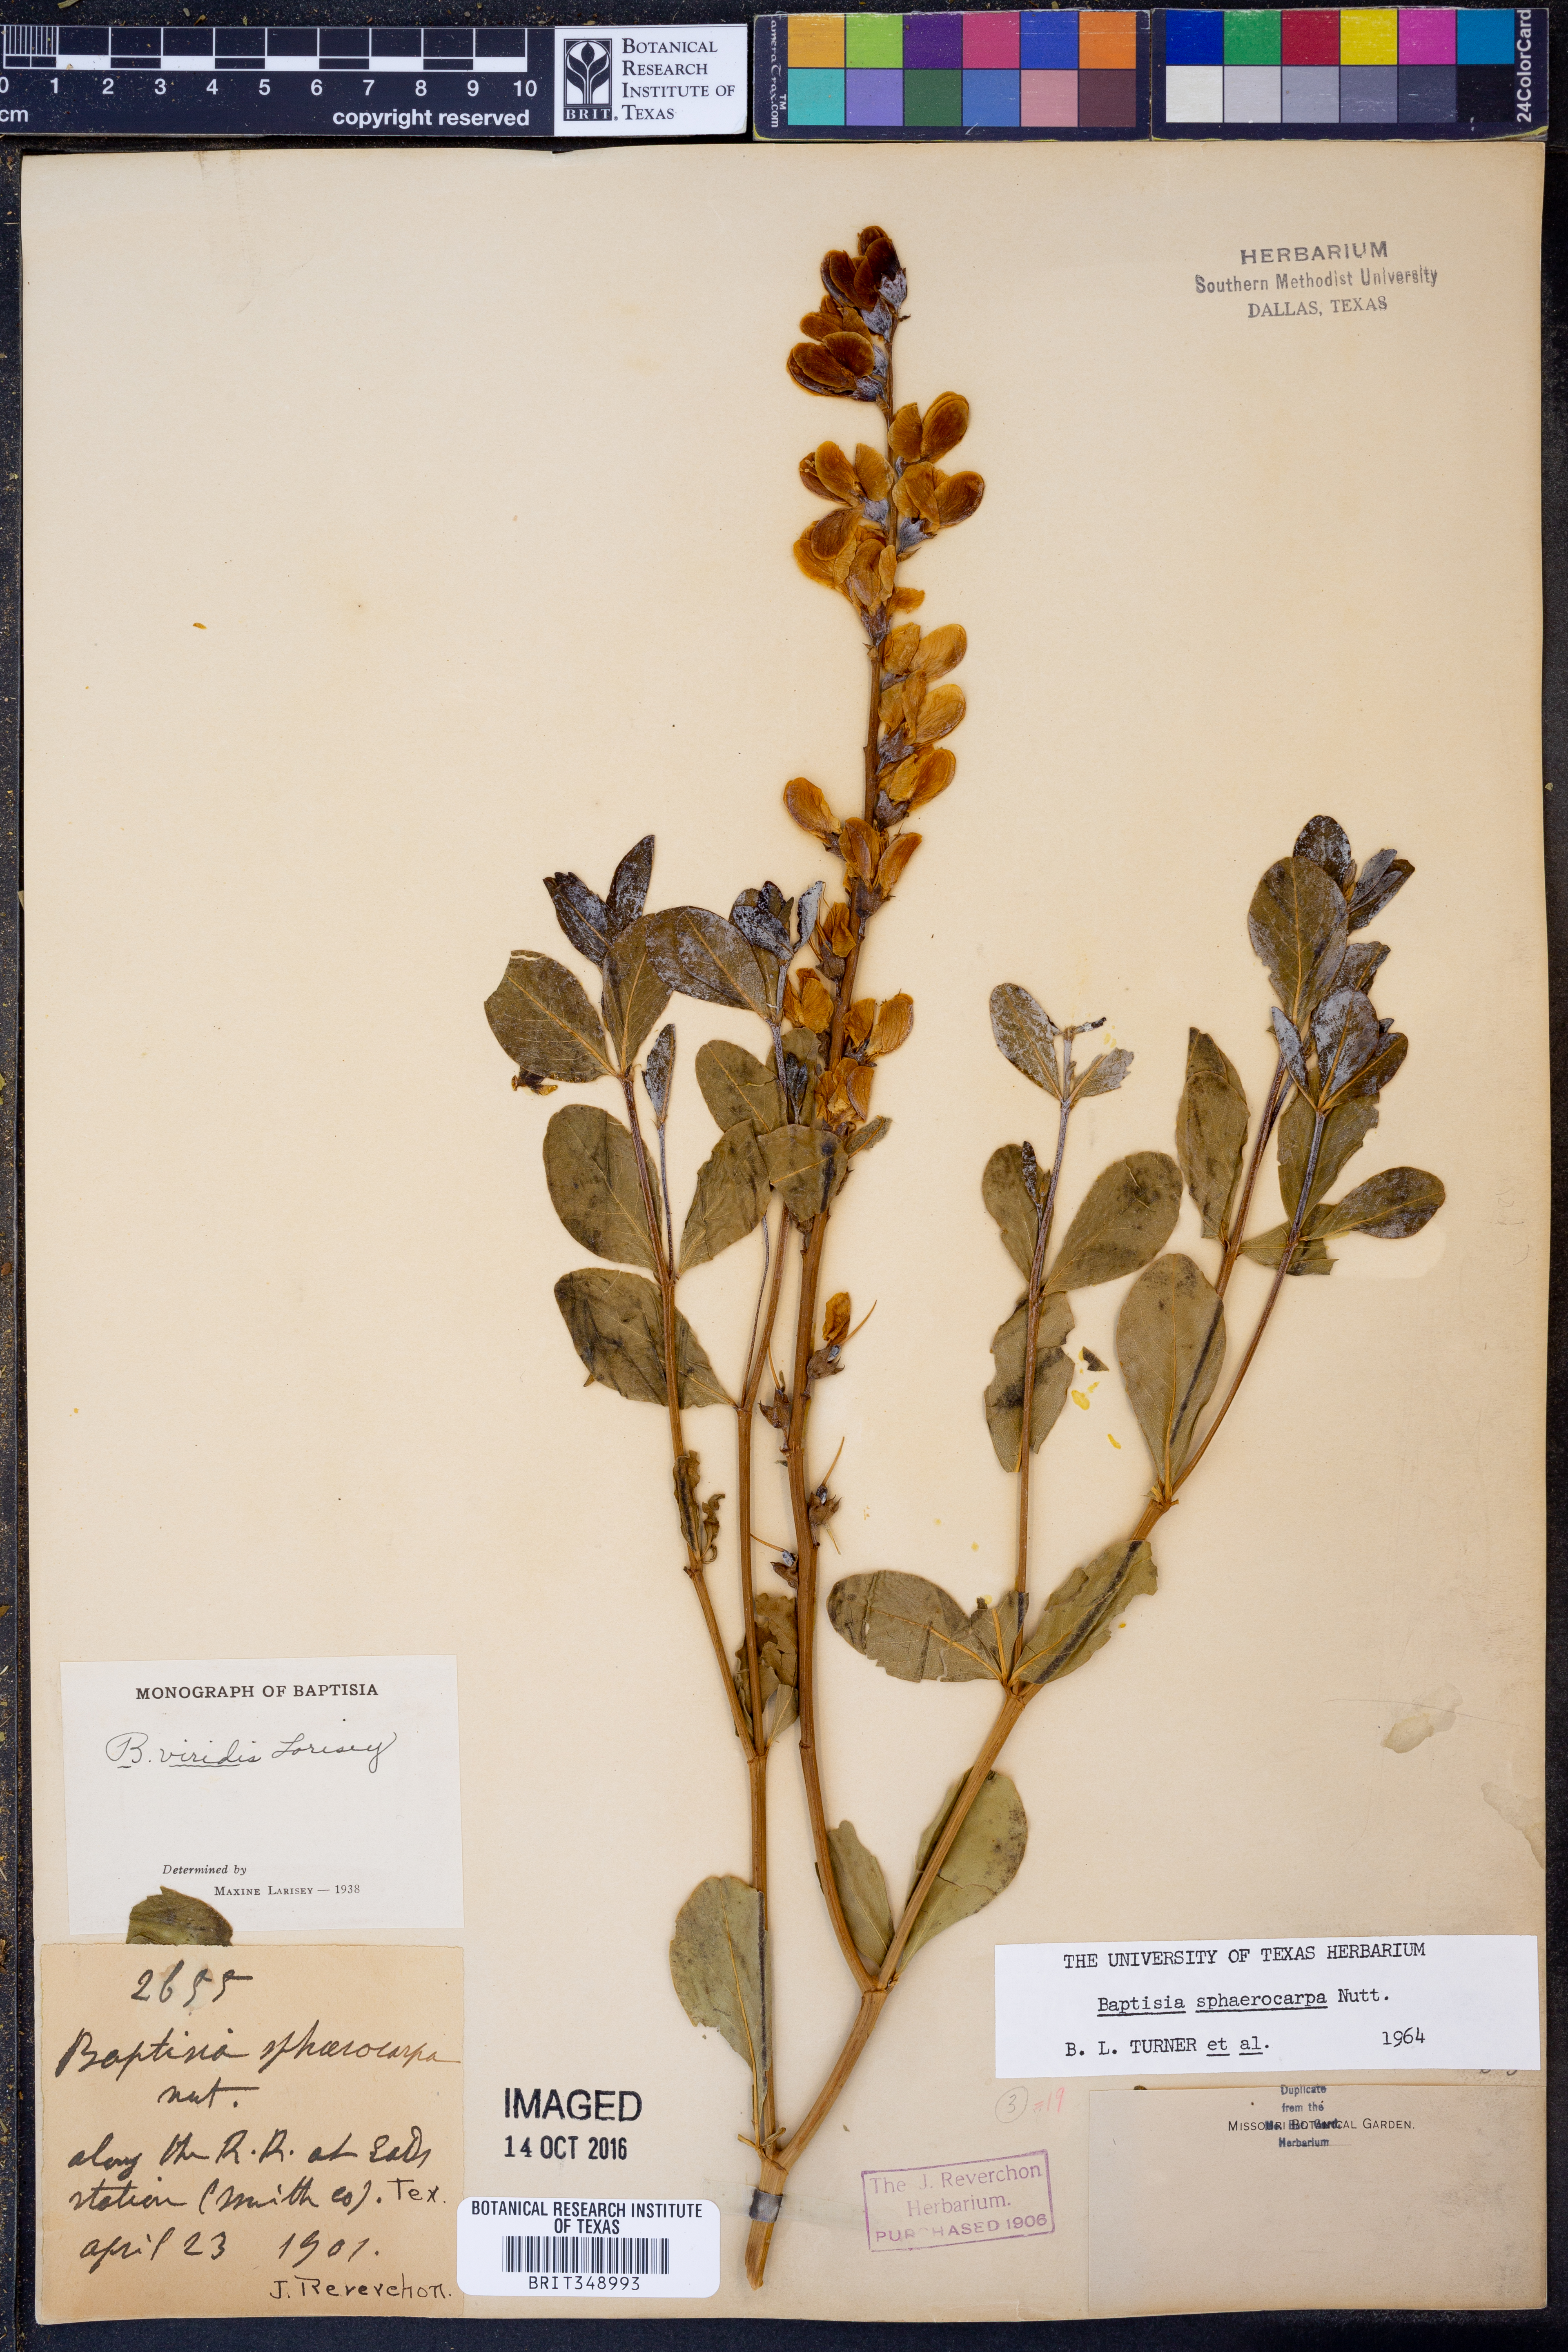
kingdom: Plantae
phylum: Tracheophyta
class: Magnoliopsida
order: Fabales
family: Fabaceae
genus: Baptisia
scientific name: Baptisia sphaerocarpa
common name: Round wild indigo
